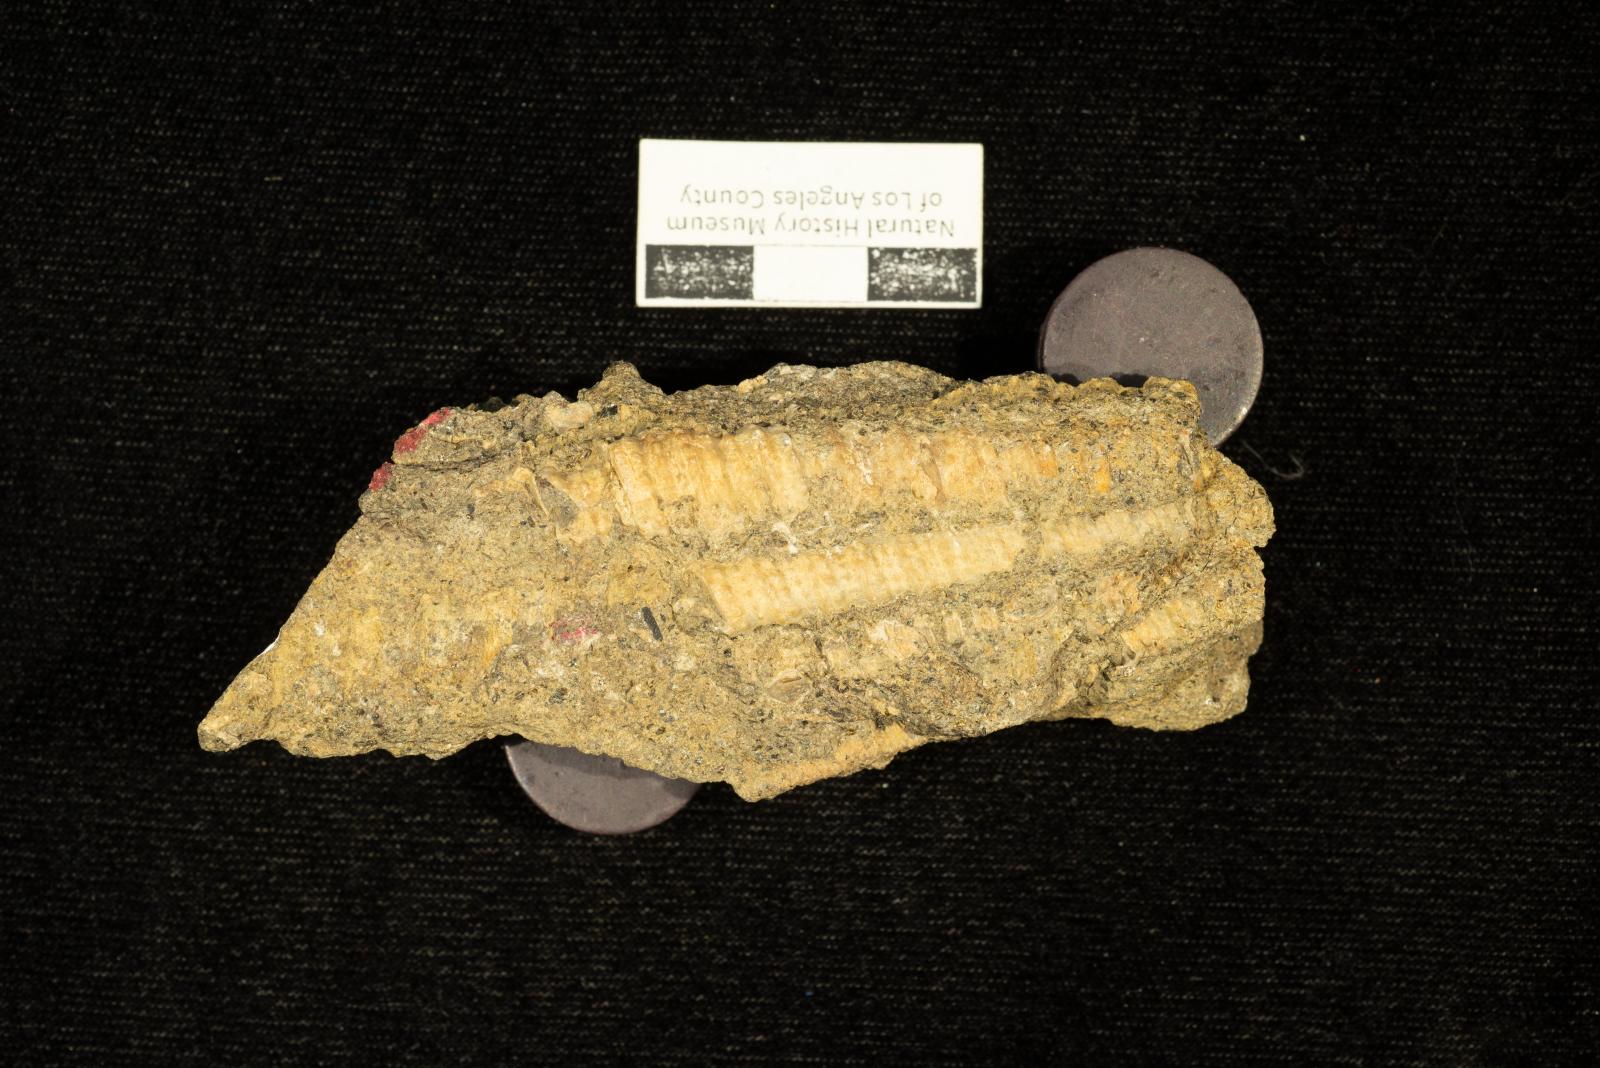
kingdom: Animalia
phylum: Mollusca
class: Gastropoda
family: Nerinellidae
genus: Nerinella
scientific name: Nerinella santana
